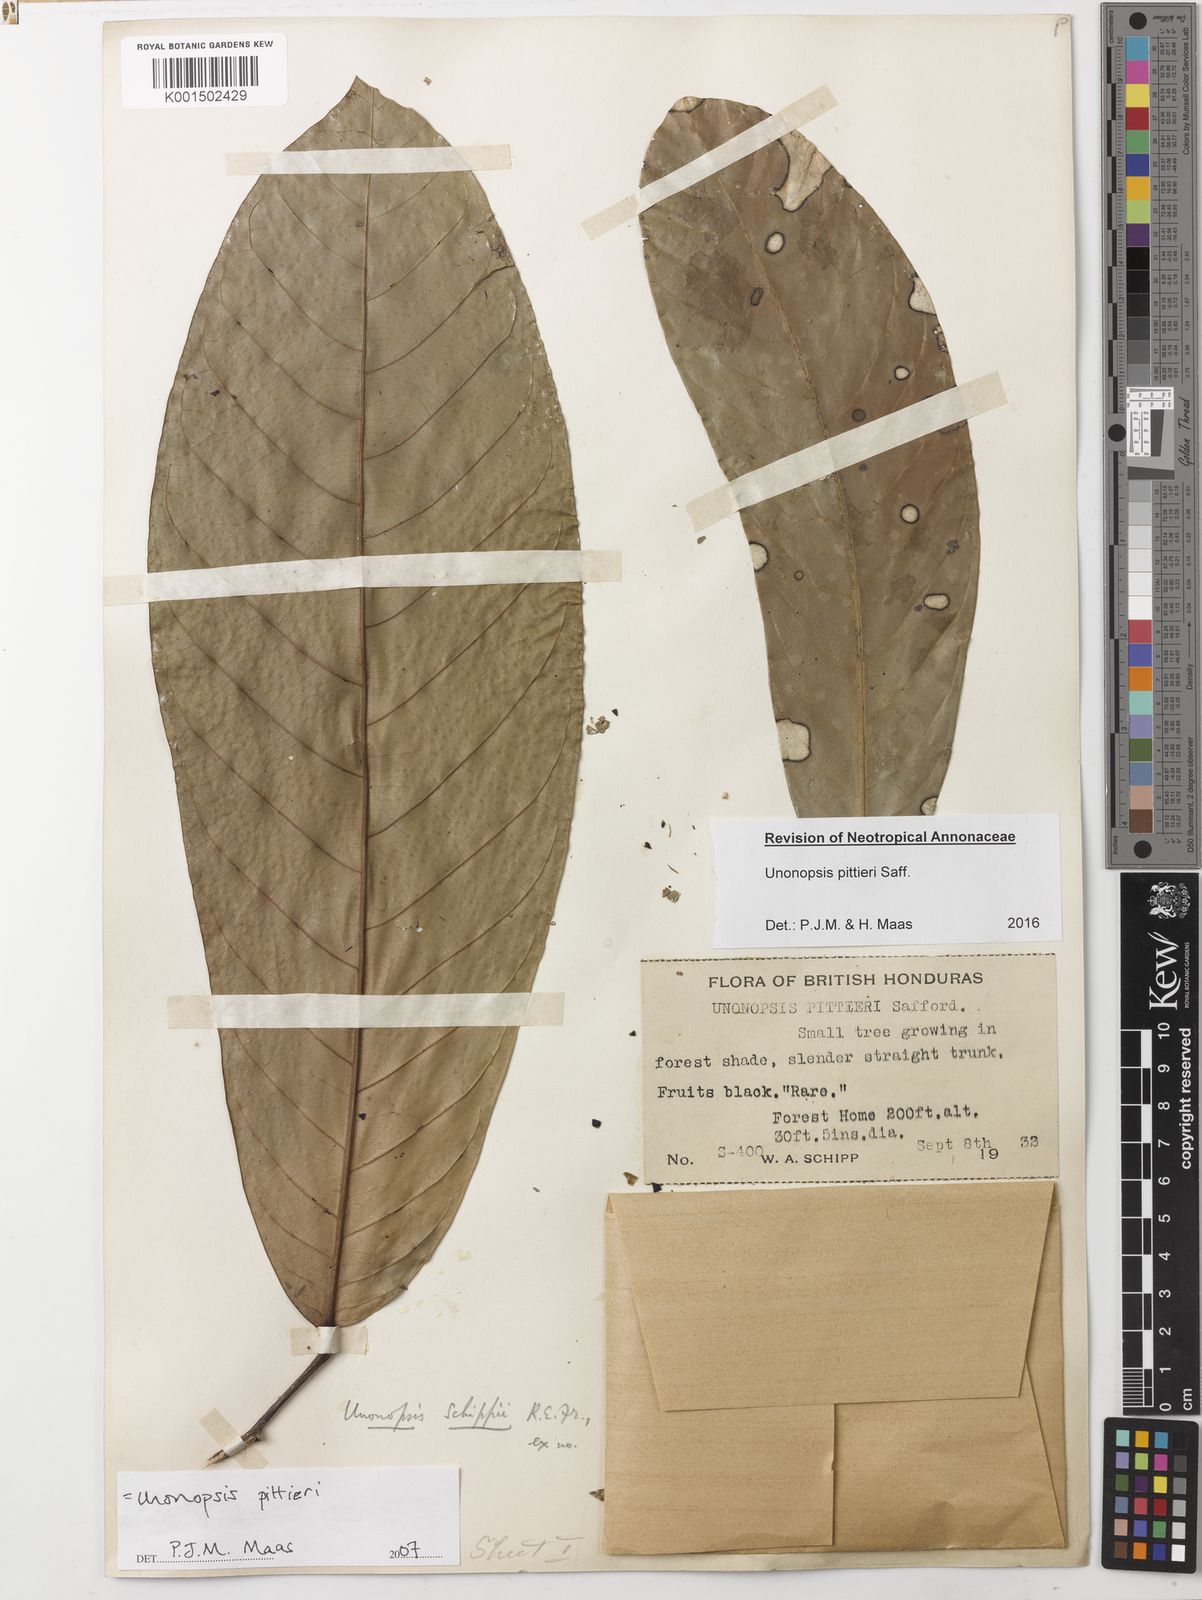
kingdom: Plantae
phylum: Tracheophyta
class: Magnoliopsida
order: Magnoliales
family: Annonaceae
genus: Unonopsis
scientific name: Unonopsis pittieri
